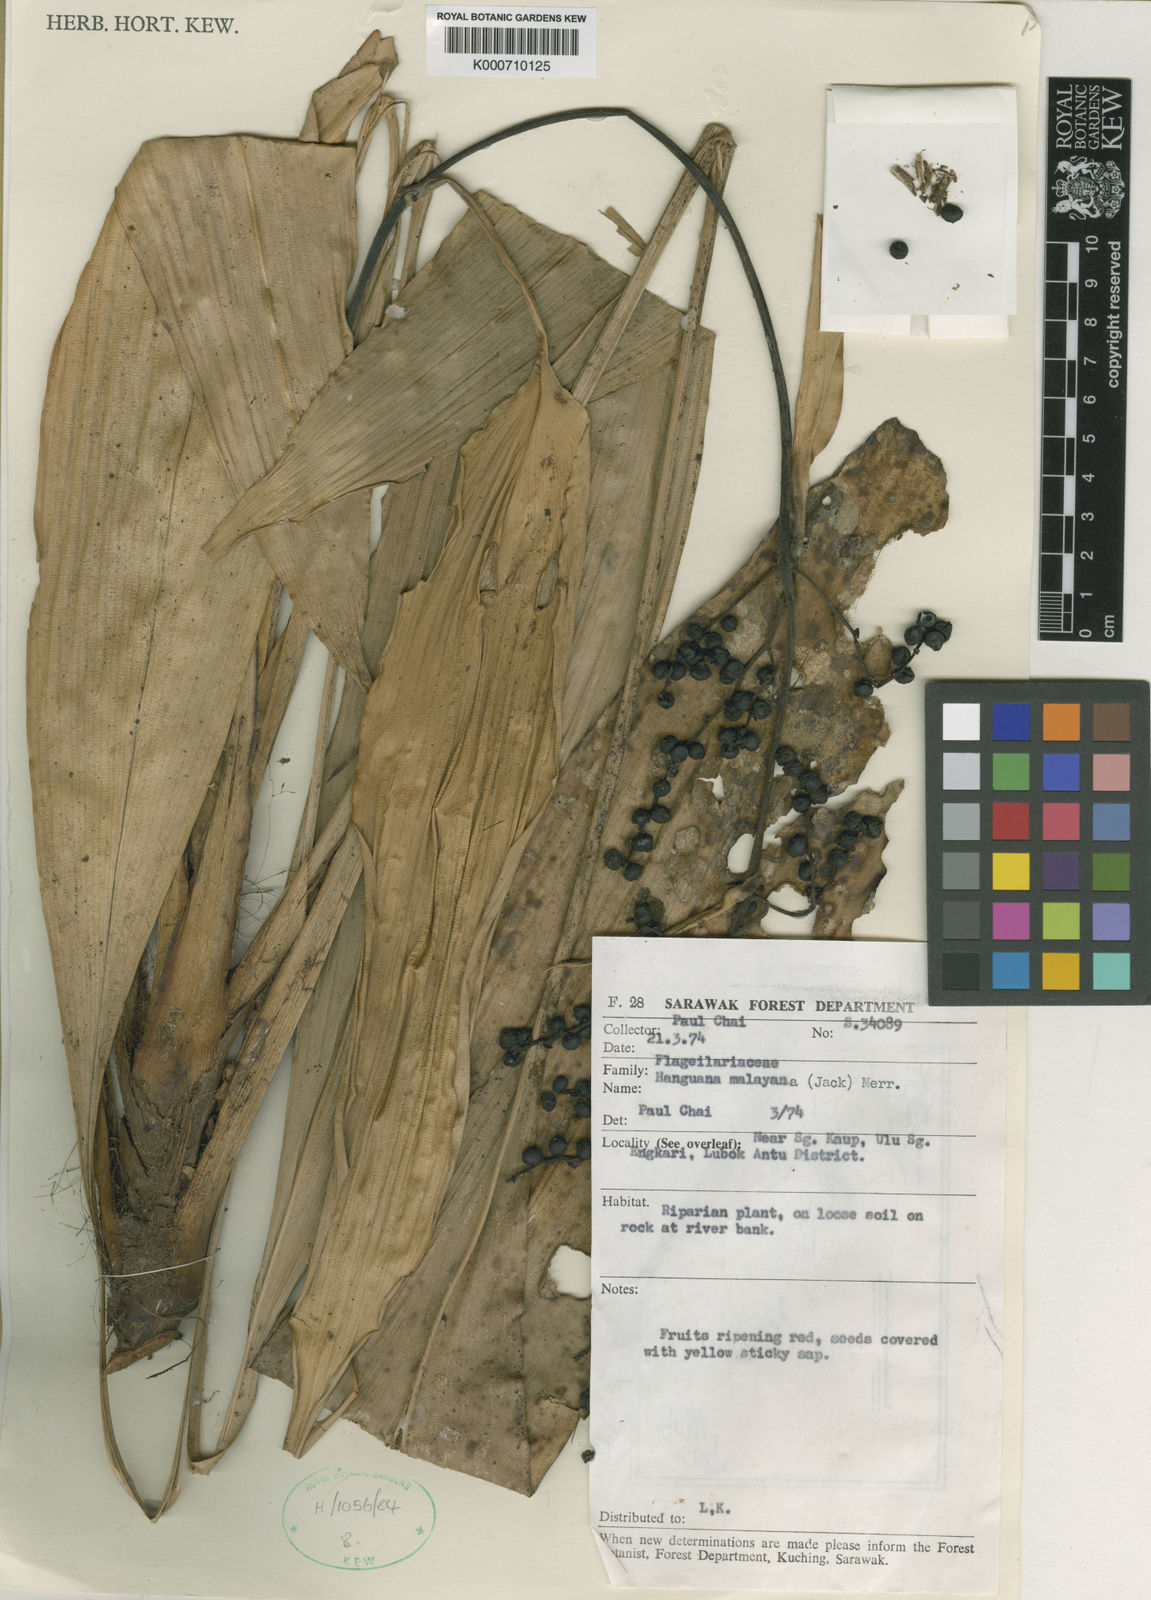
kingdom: Plantae
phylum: Tracheophyta
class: Liliopsida
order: Commelinales
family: Hanguanaceae
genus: Hanguana
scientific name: Hanguana malayana
